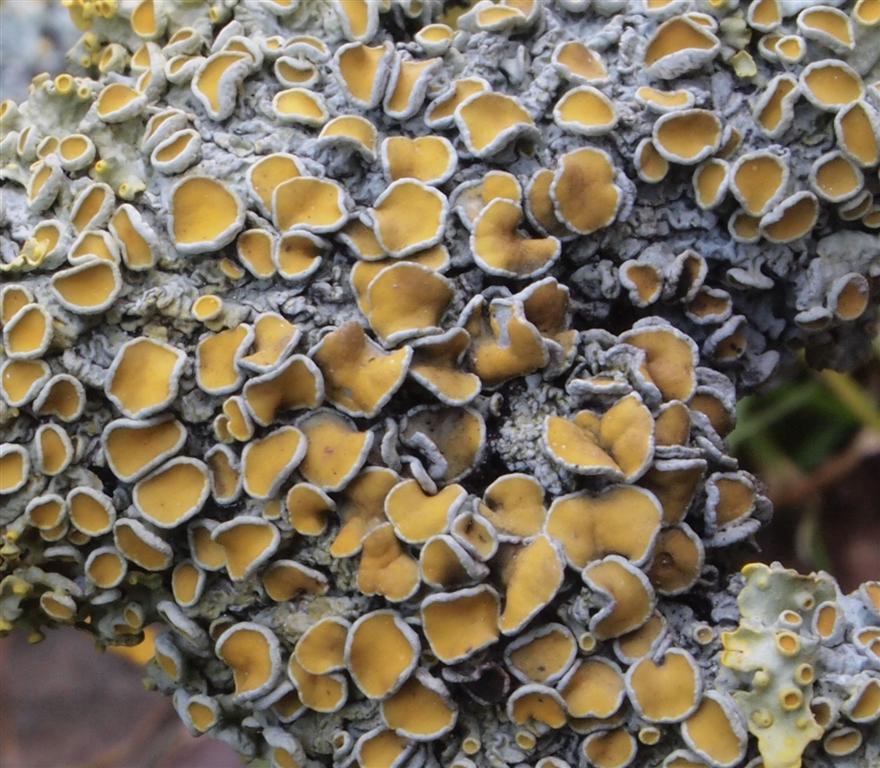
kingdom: Fungi
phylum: Ascomycota
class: Lecanoromycetes
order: Teloschistales
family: Teloschistaceae
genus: Xanthoria
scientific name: Xanthoria parietina
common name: almindelig væggelav
